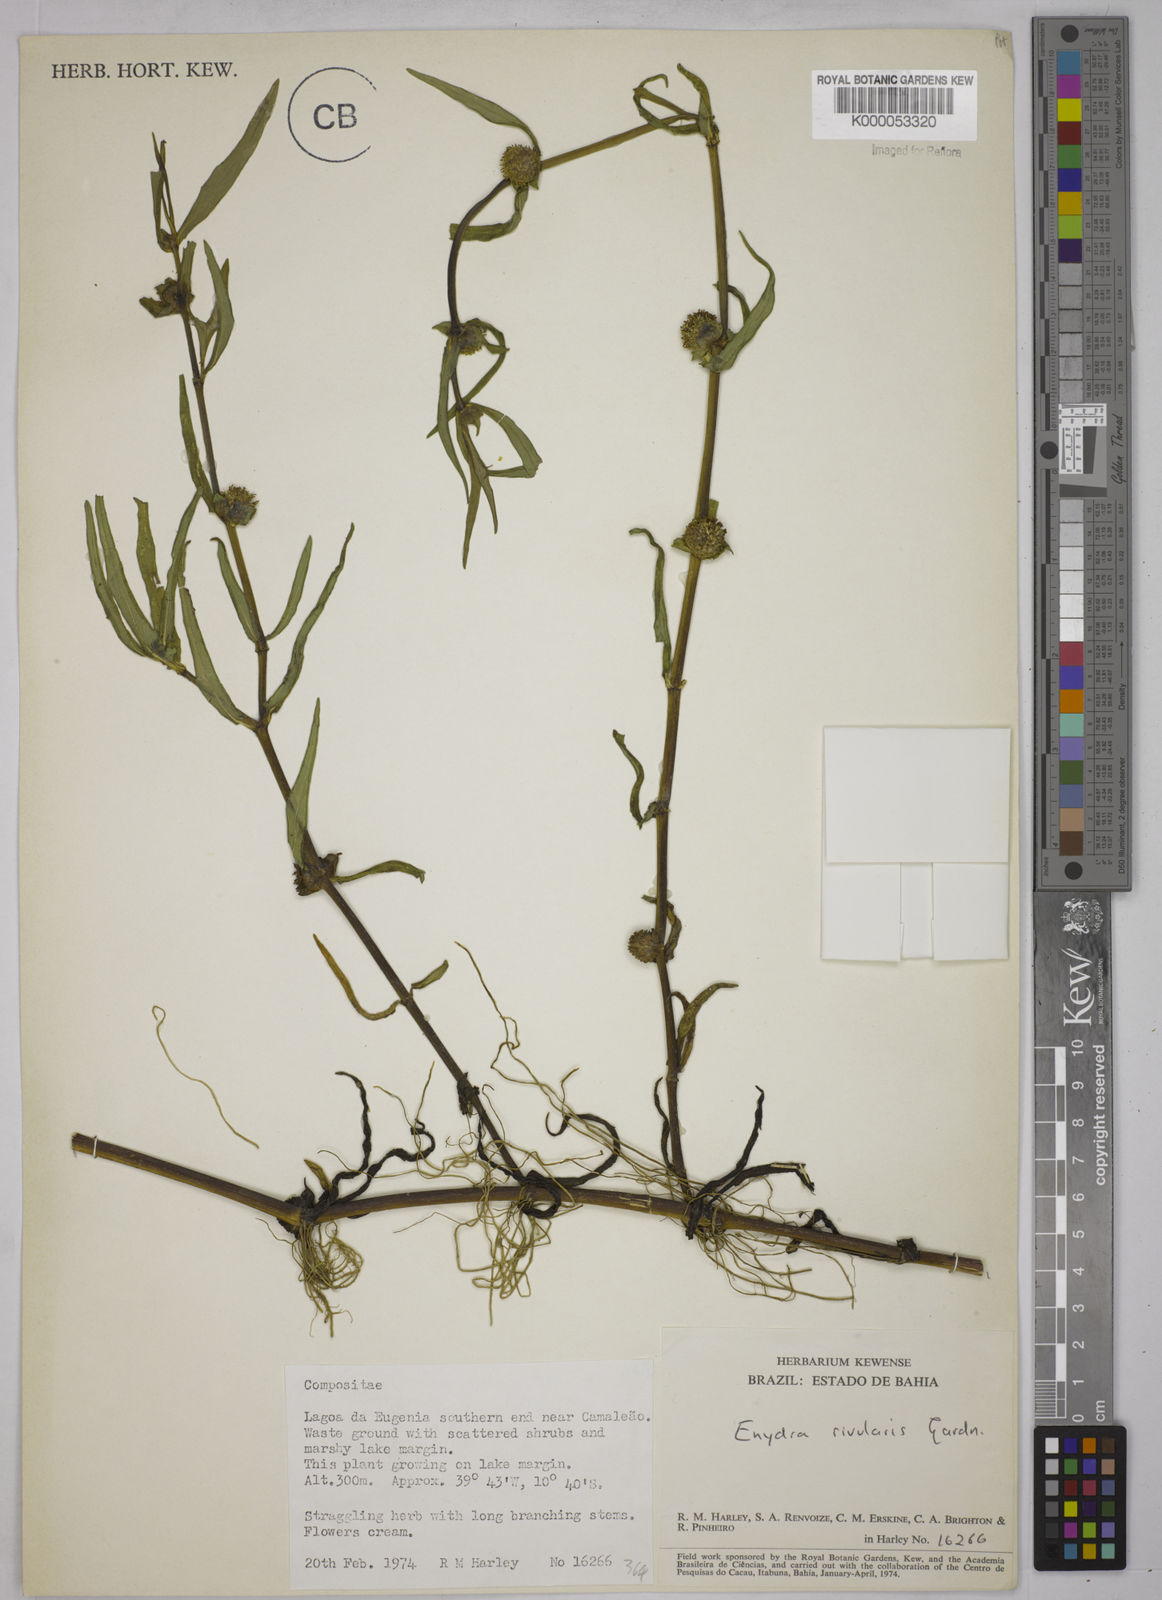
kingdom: Plantae
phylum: Tracheophyta
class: Magnoliopsida
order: Asterales
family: Asteraceae
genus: Enydra
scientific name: Enydra radicans
